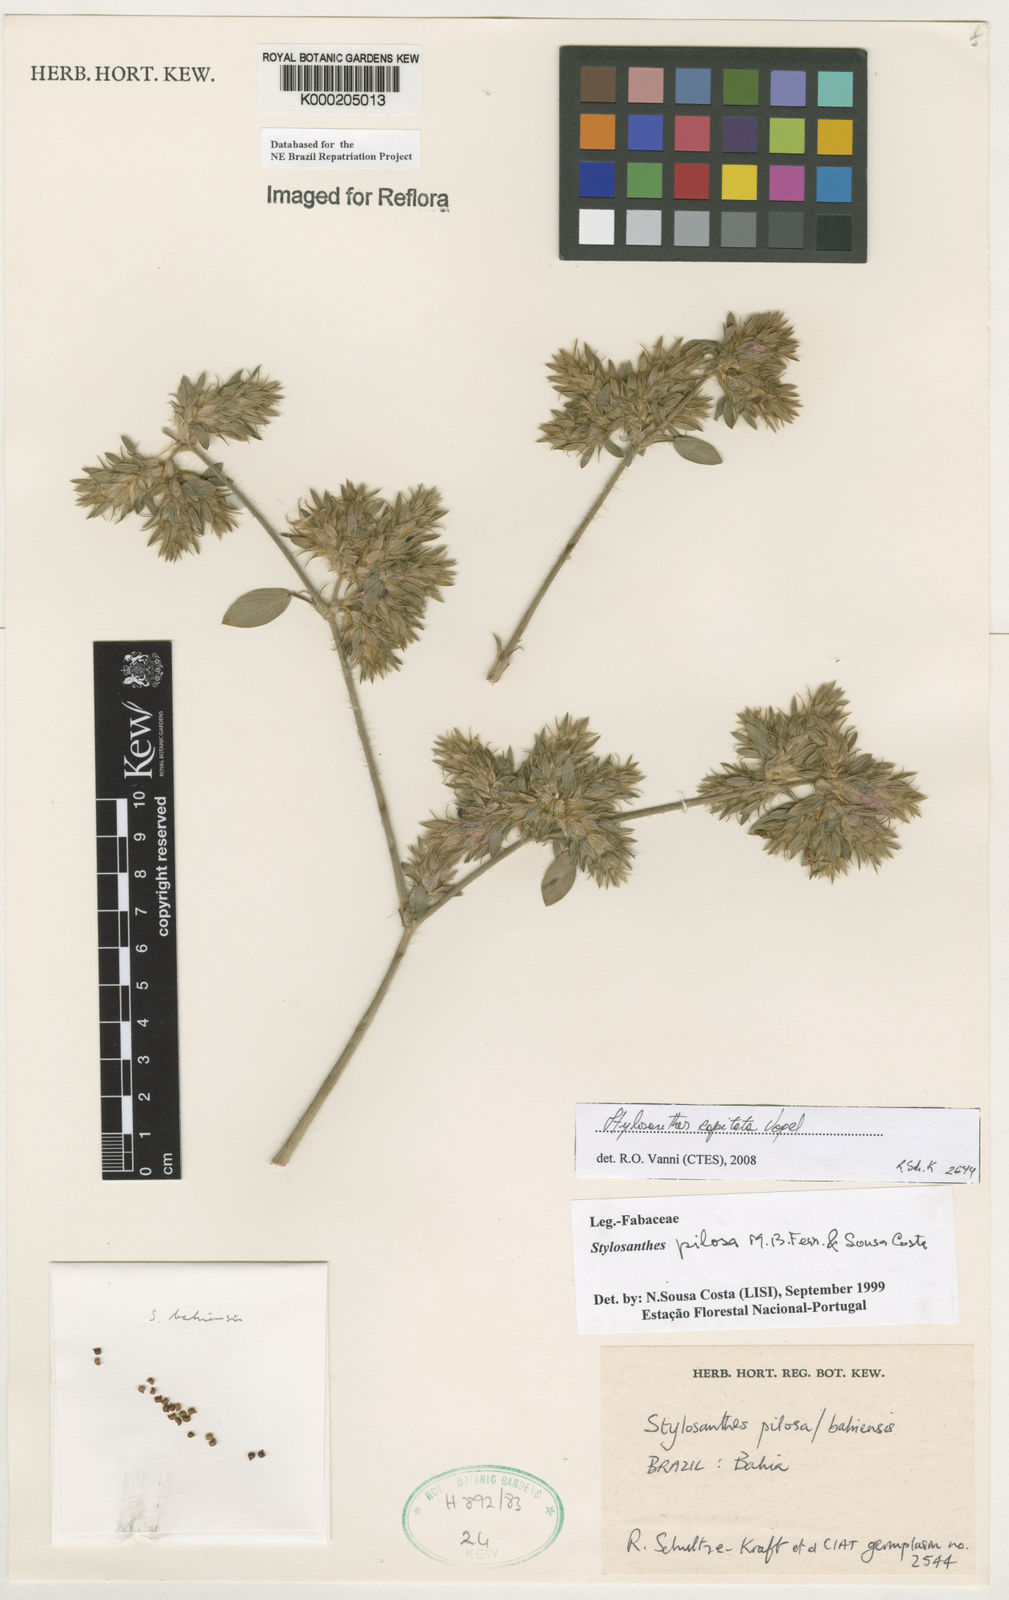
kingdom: Plantae
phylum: Tracheophyta
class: Magnoliopsida
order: Fabales
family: Fabaceae
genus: Stylosanthes
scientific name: Stylosanthes viscosa
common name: Viscid pencil-flower
